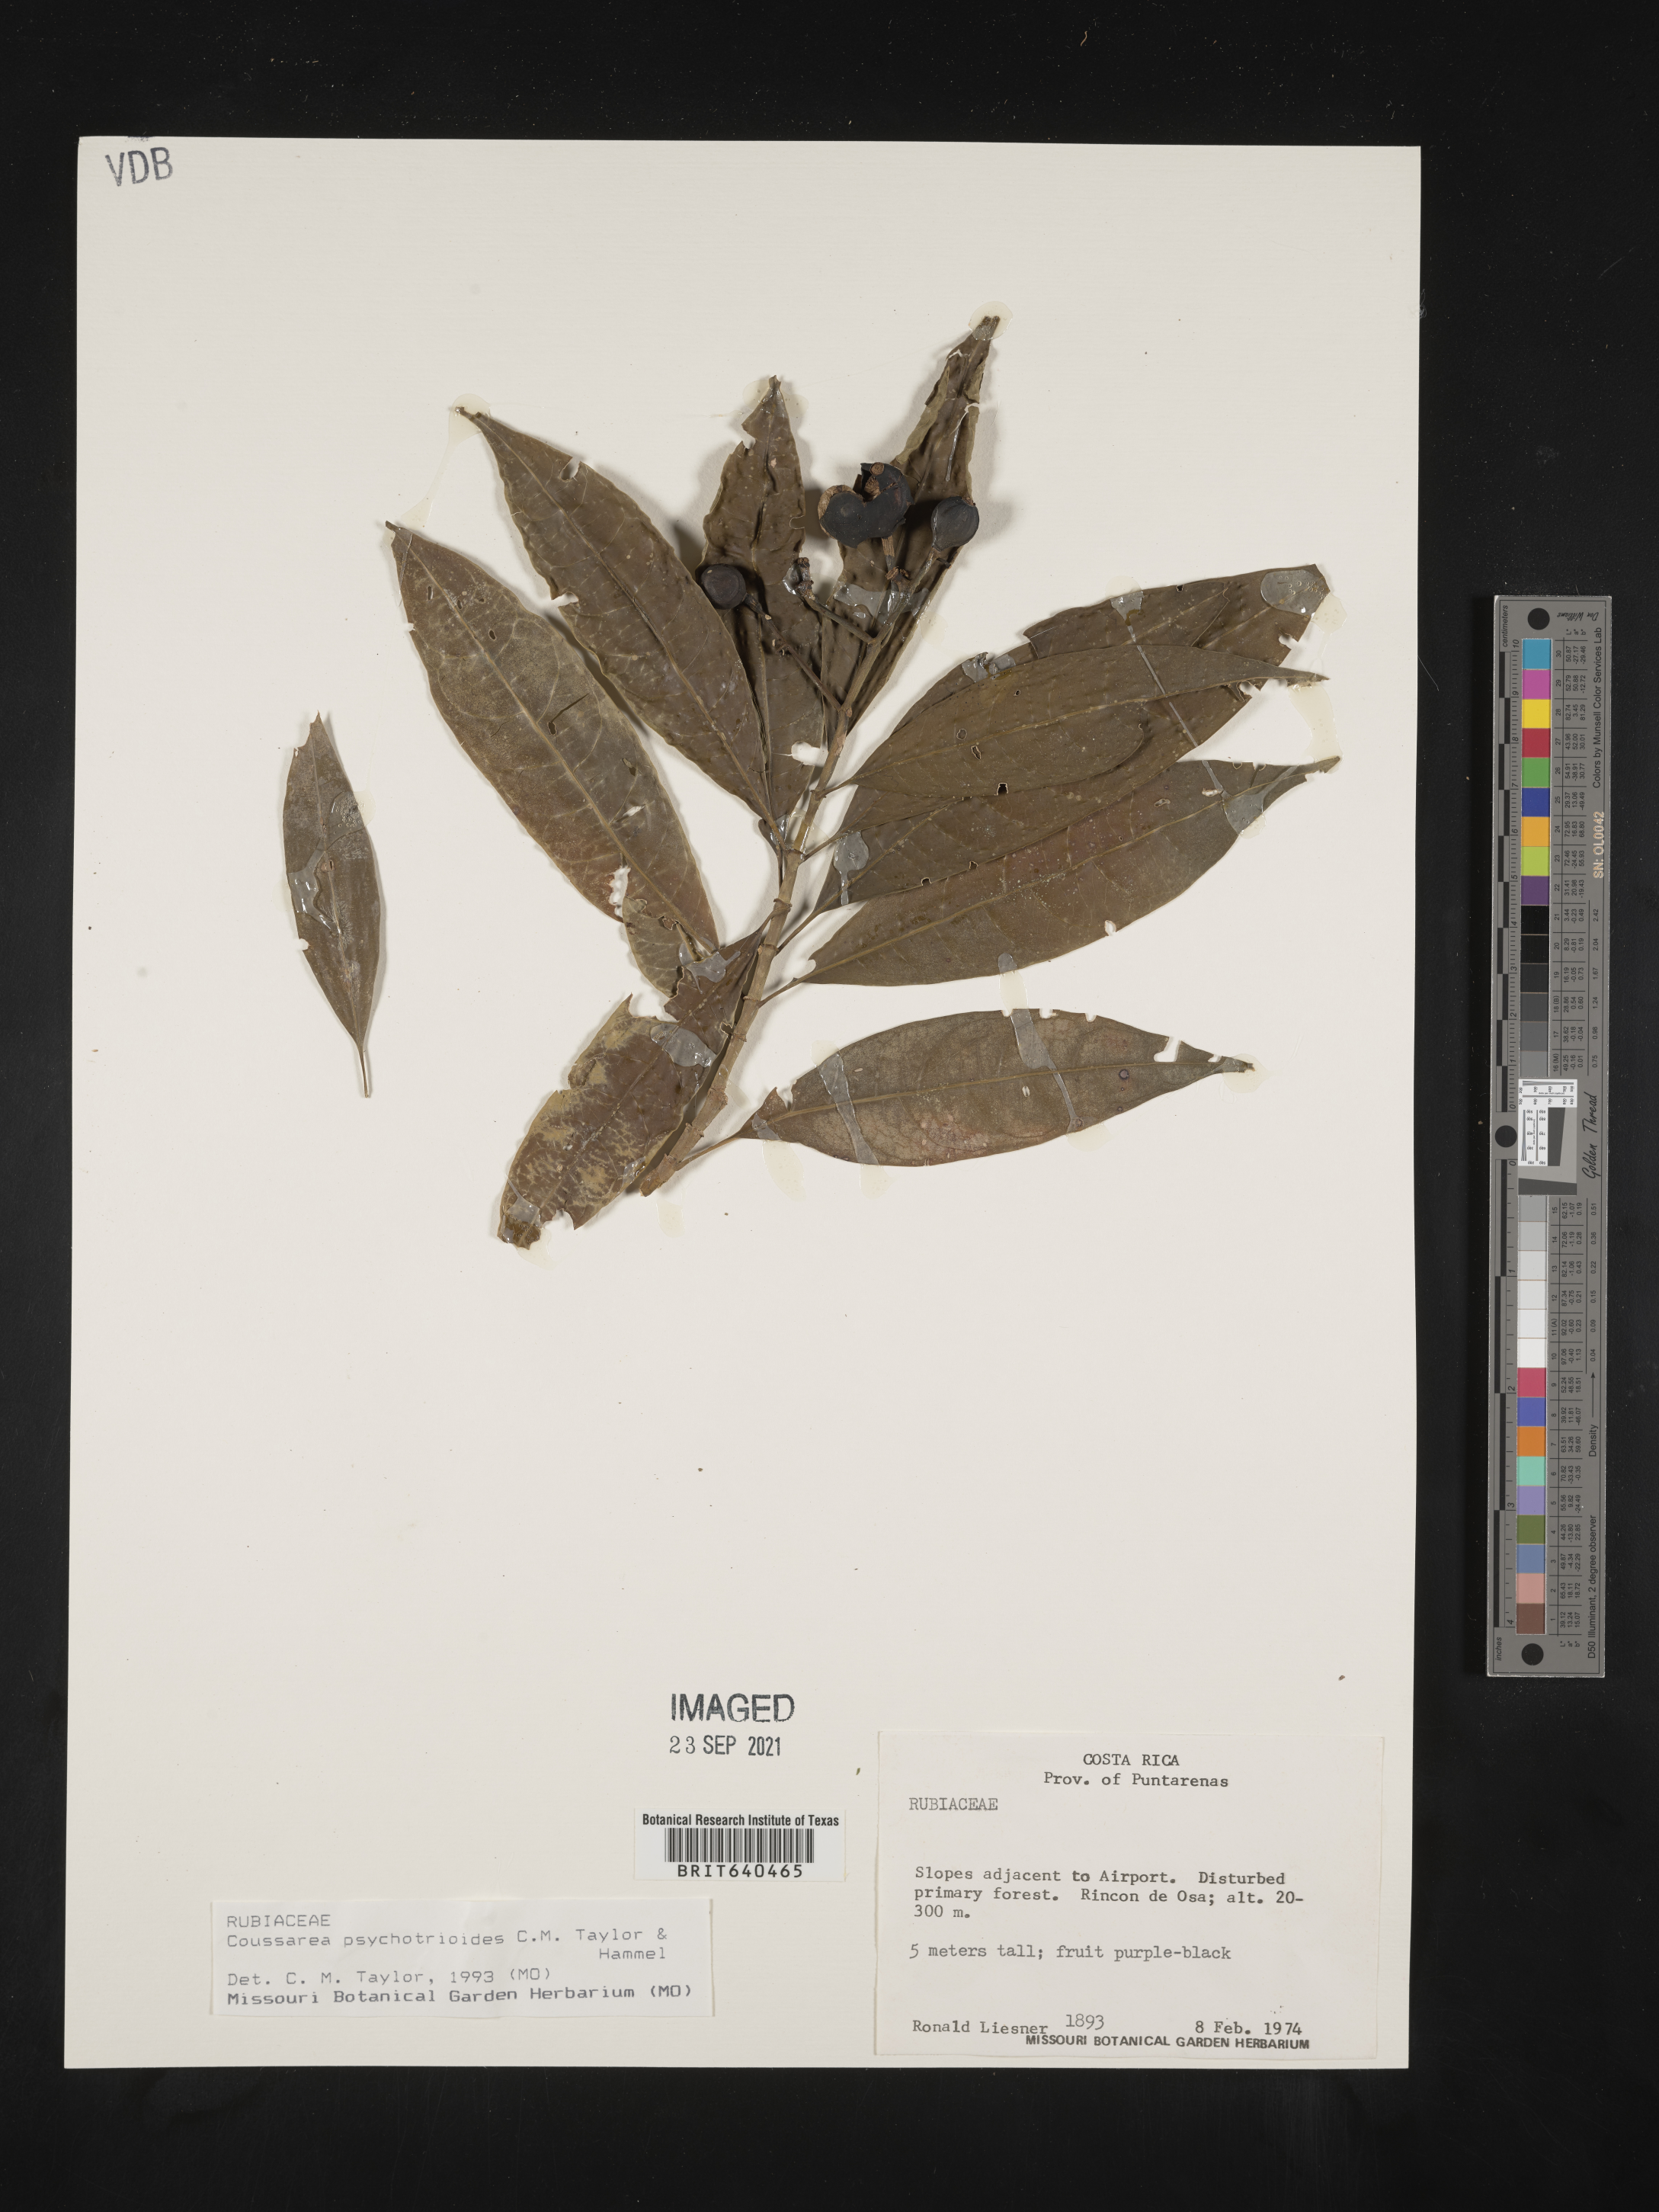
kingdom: Plantae
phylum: Tracheophyta
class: Magnoliopsida
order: Gentianales
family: Rubiaceae
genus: Coussarea
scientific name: Coussarea
